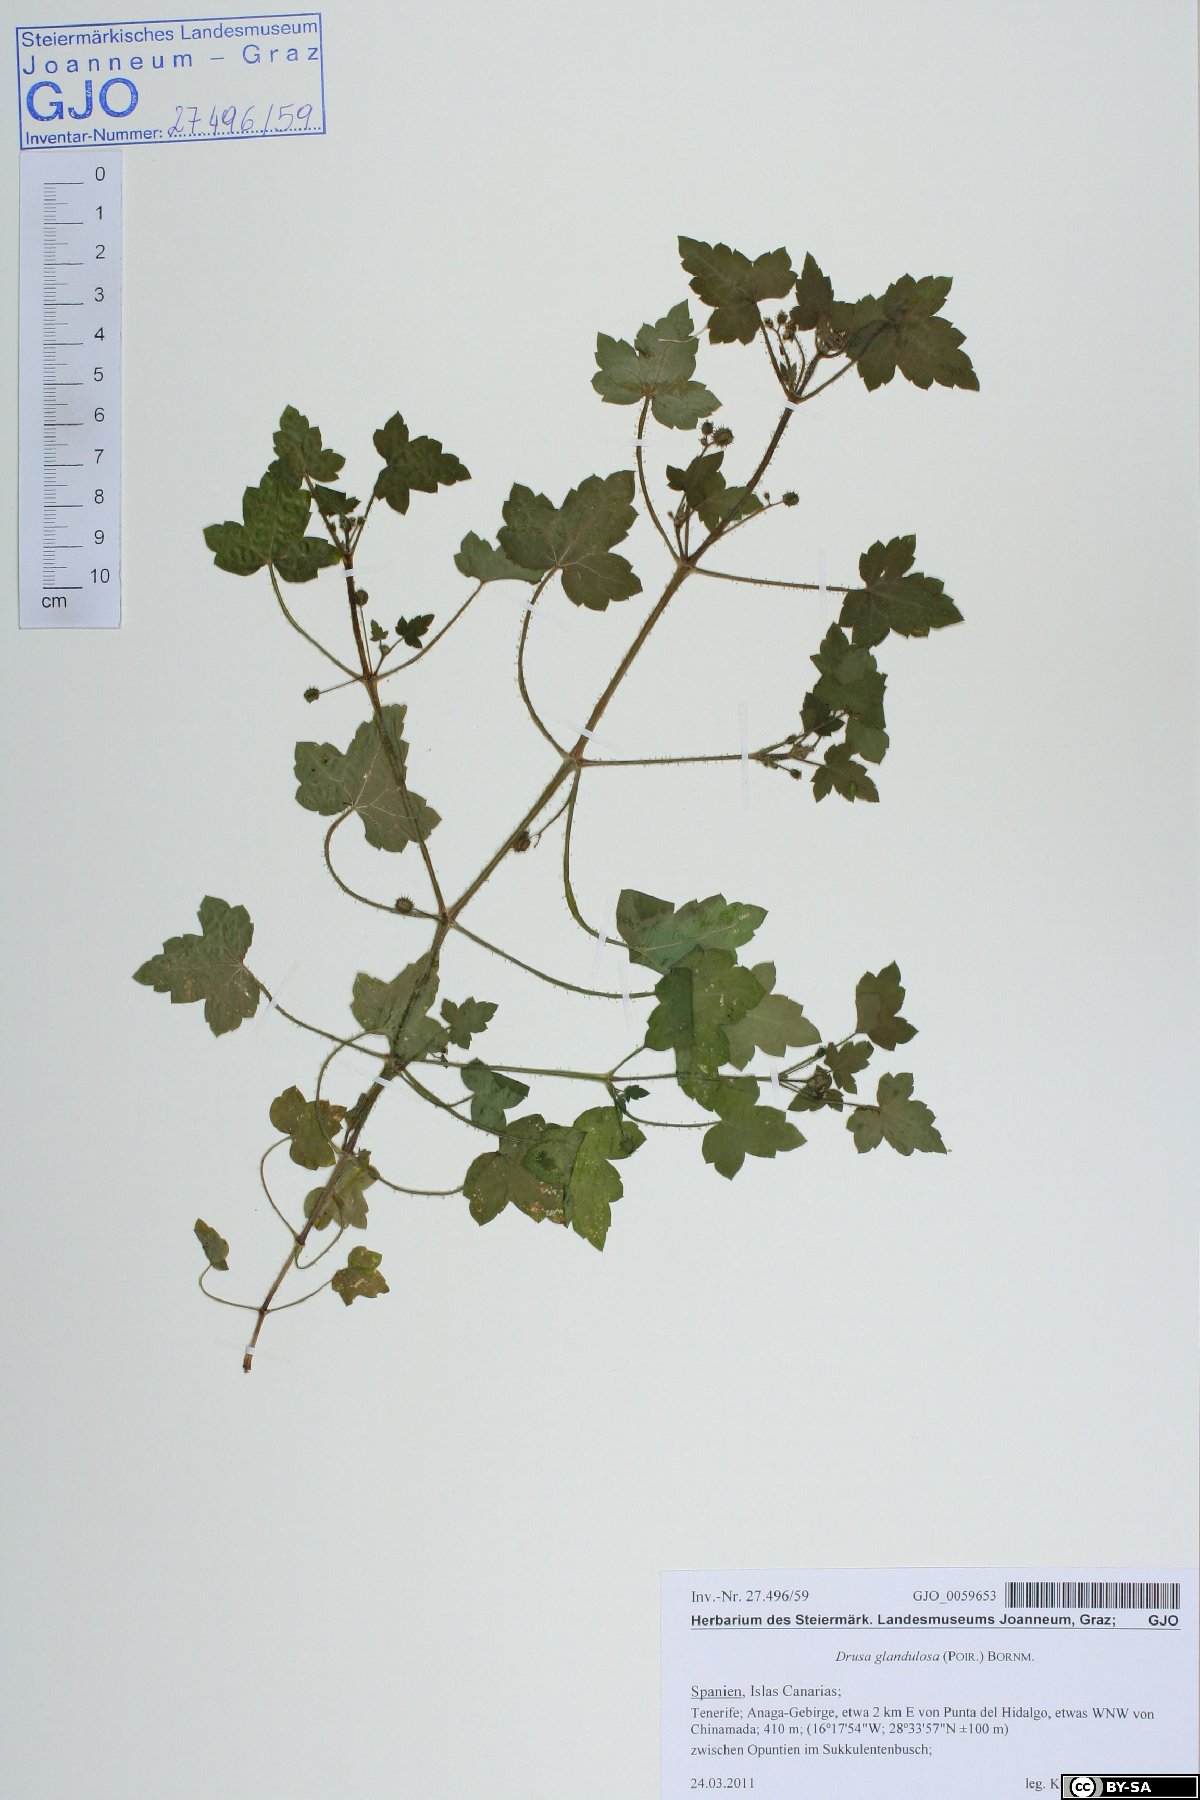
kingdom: Plantae
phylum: Tracheophyta
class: Magnoliopsida
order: Apiales
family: Apiaceae
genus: Drusa
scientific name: Drusa glandulosa
